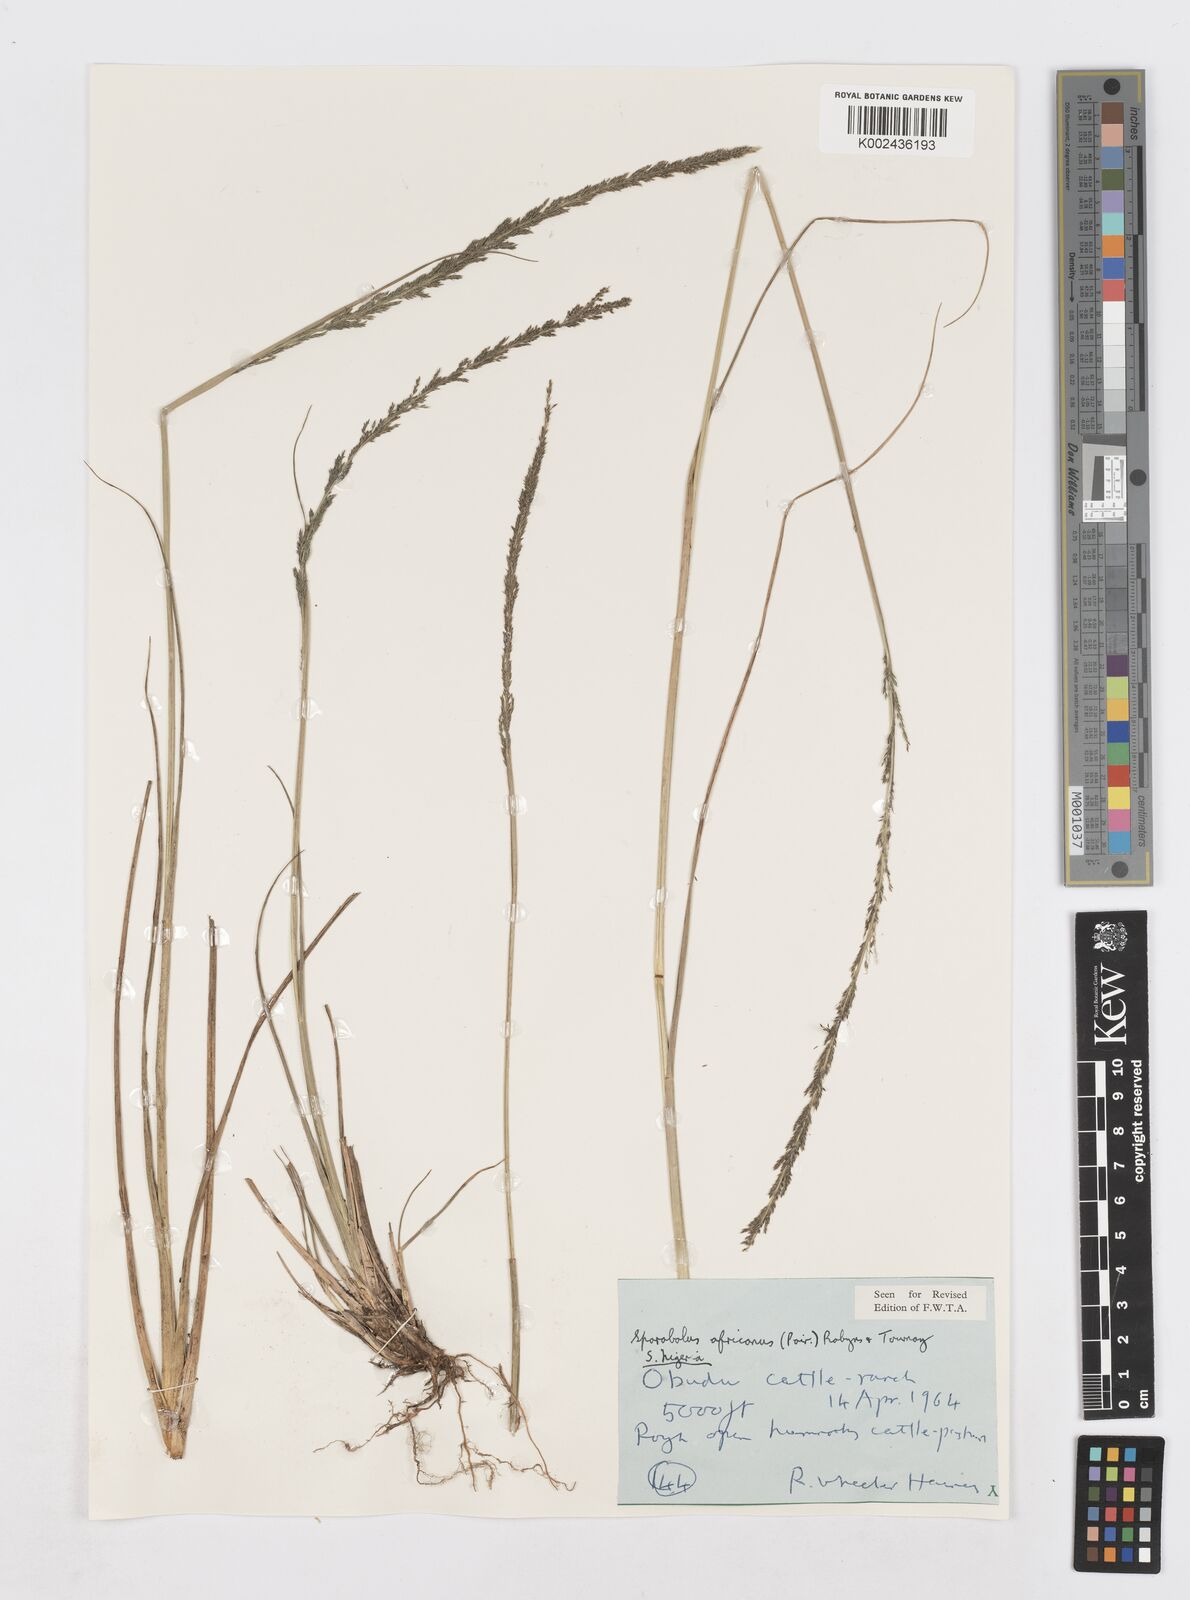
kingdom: Plantae
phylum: Tracheophyta
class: Liliopsida
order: Poales
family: Poaceae
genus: Sporobolus
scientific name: Sporobolus africanus
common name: African dropseed
